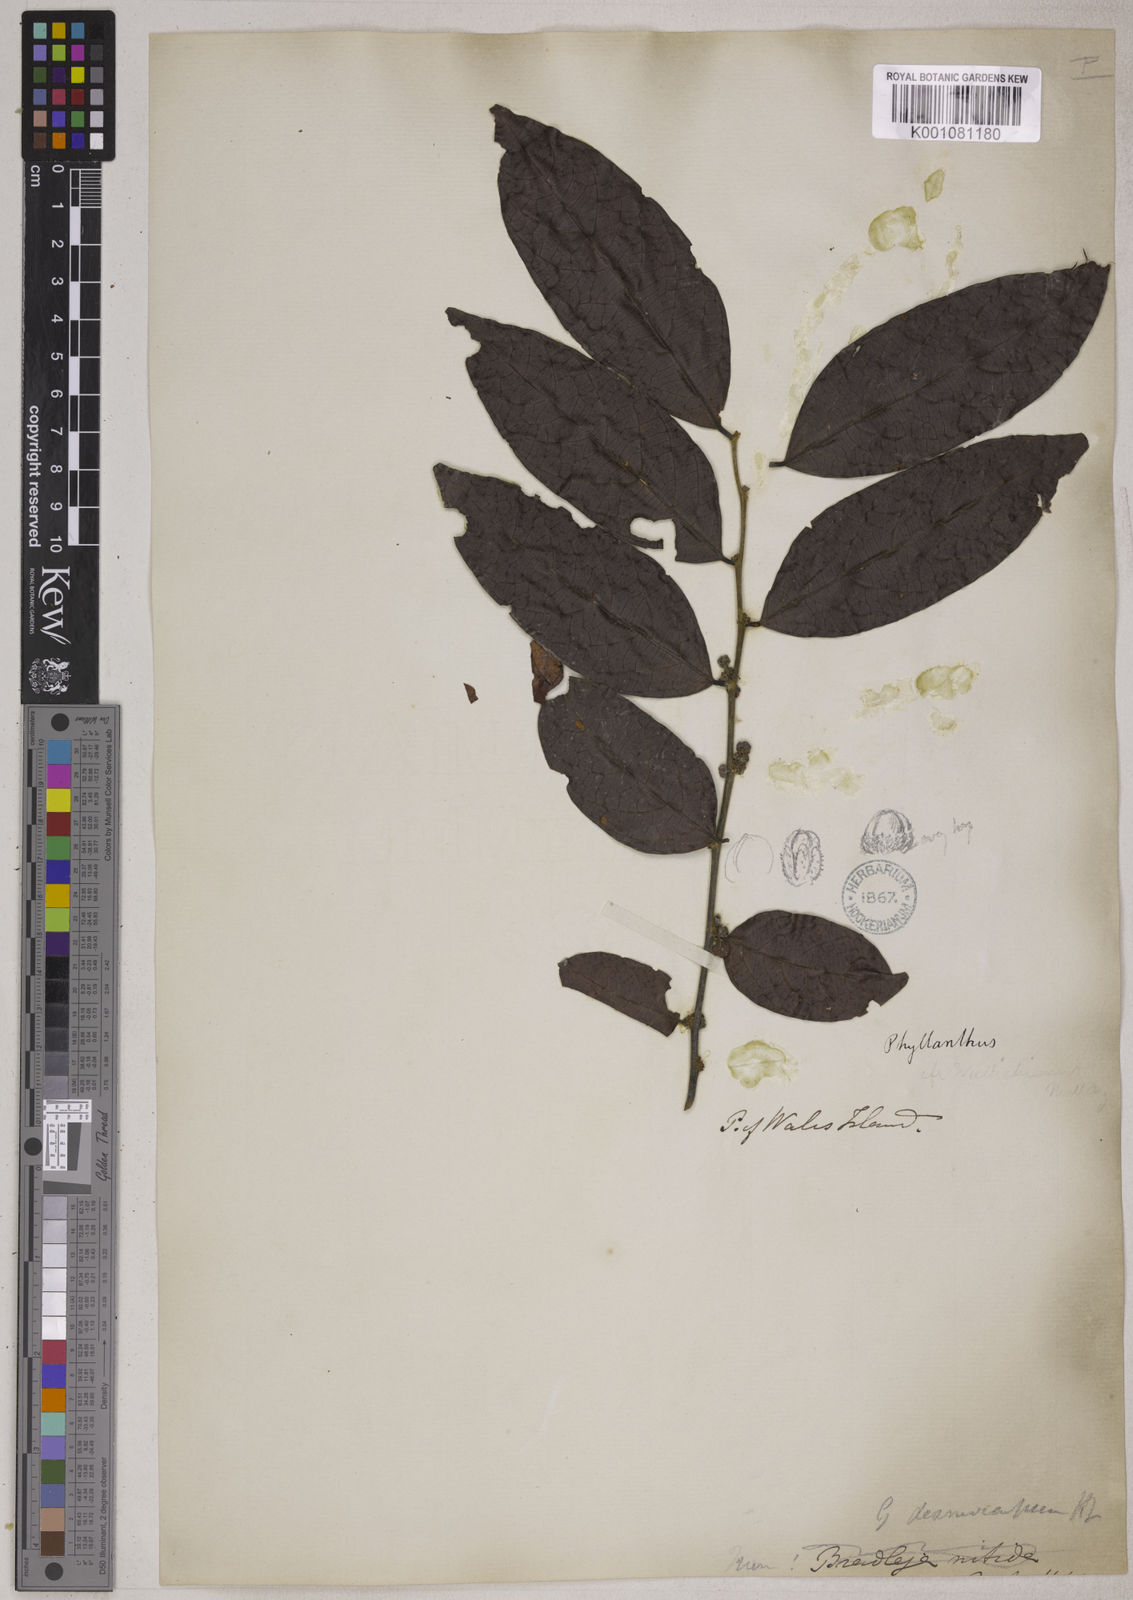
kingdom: Plantae
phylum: Tracheophyta
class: Magnoliopsida
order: Malpighiales
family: Phyllanthaceae
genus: Glochidion
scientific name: Glochidion glomerulatum
